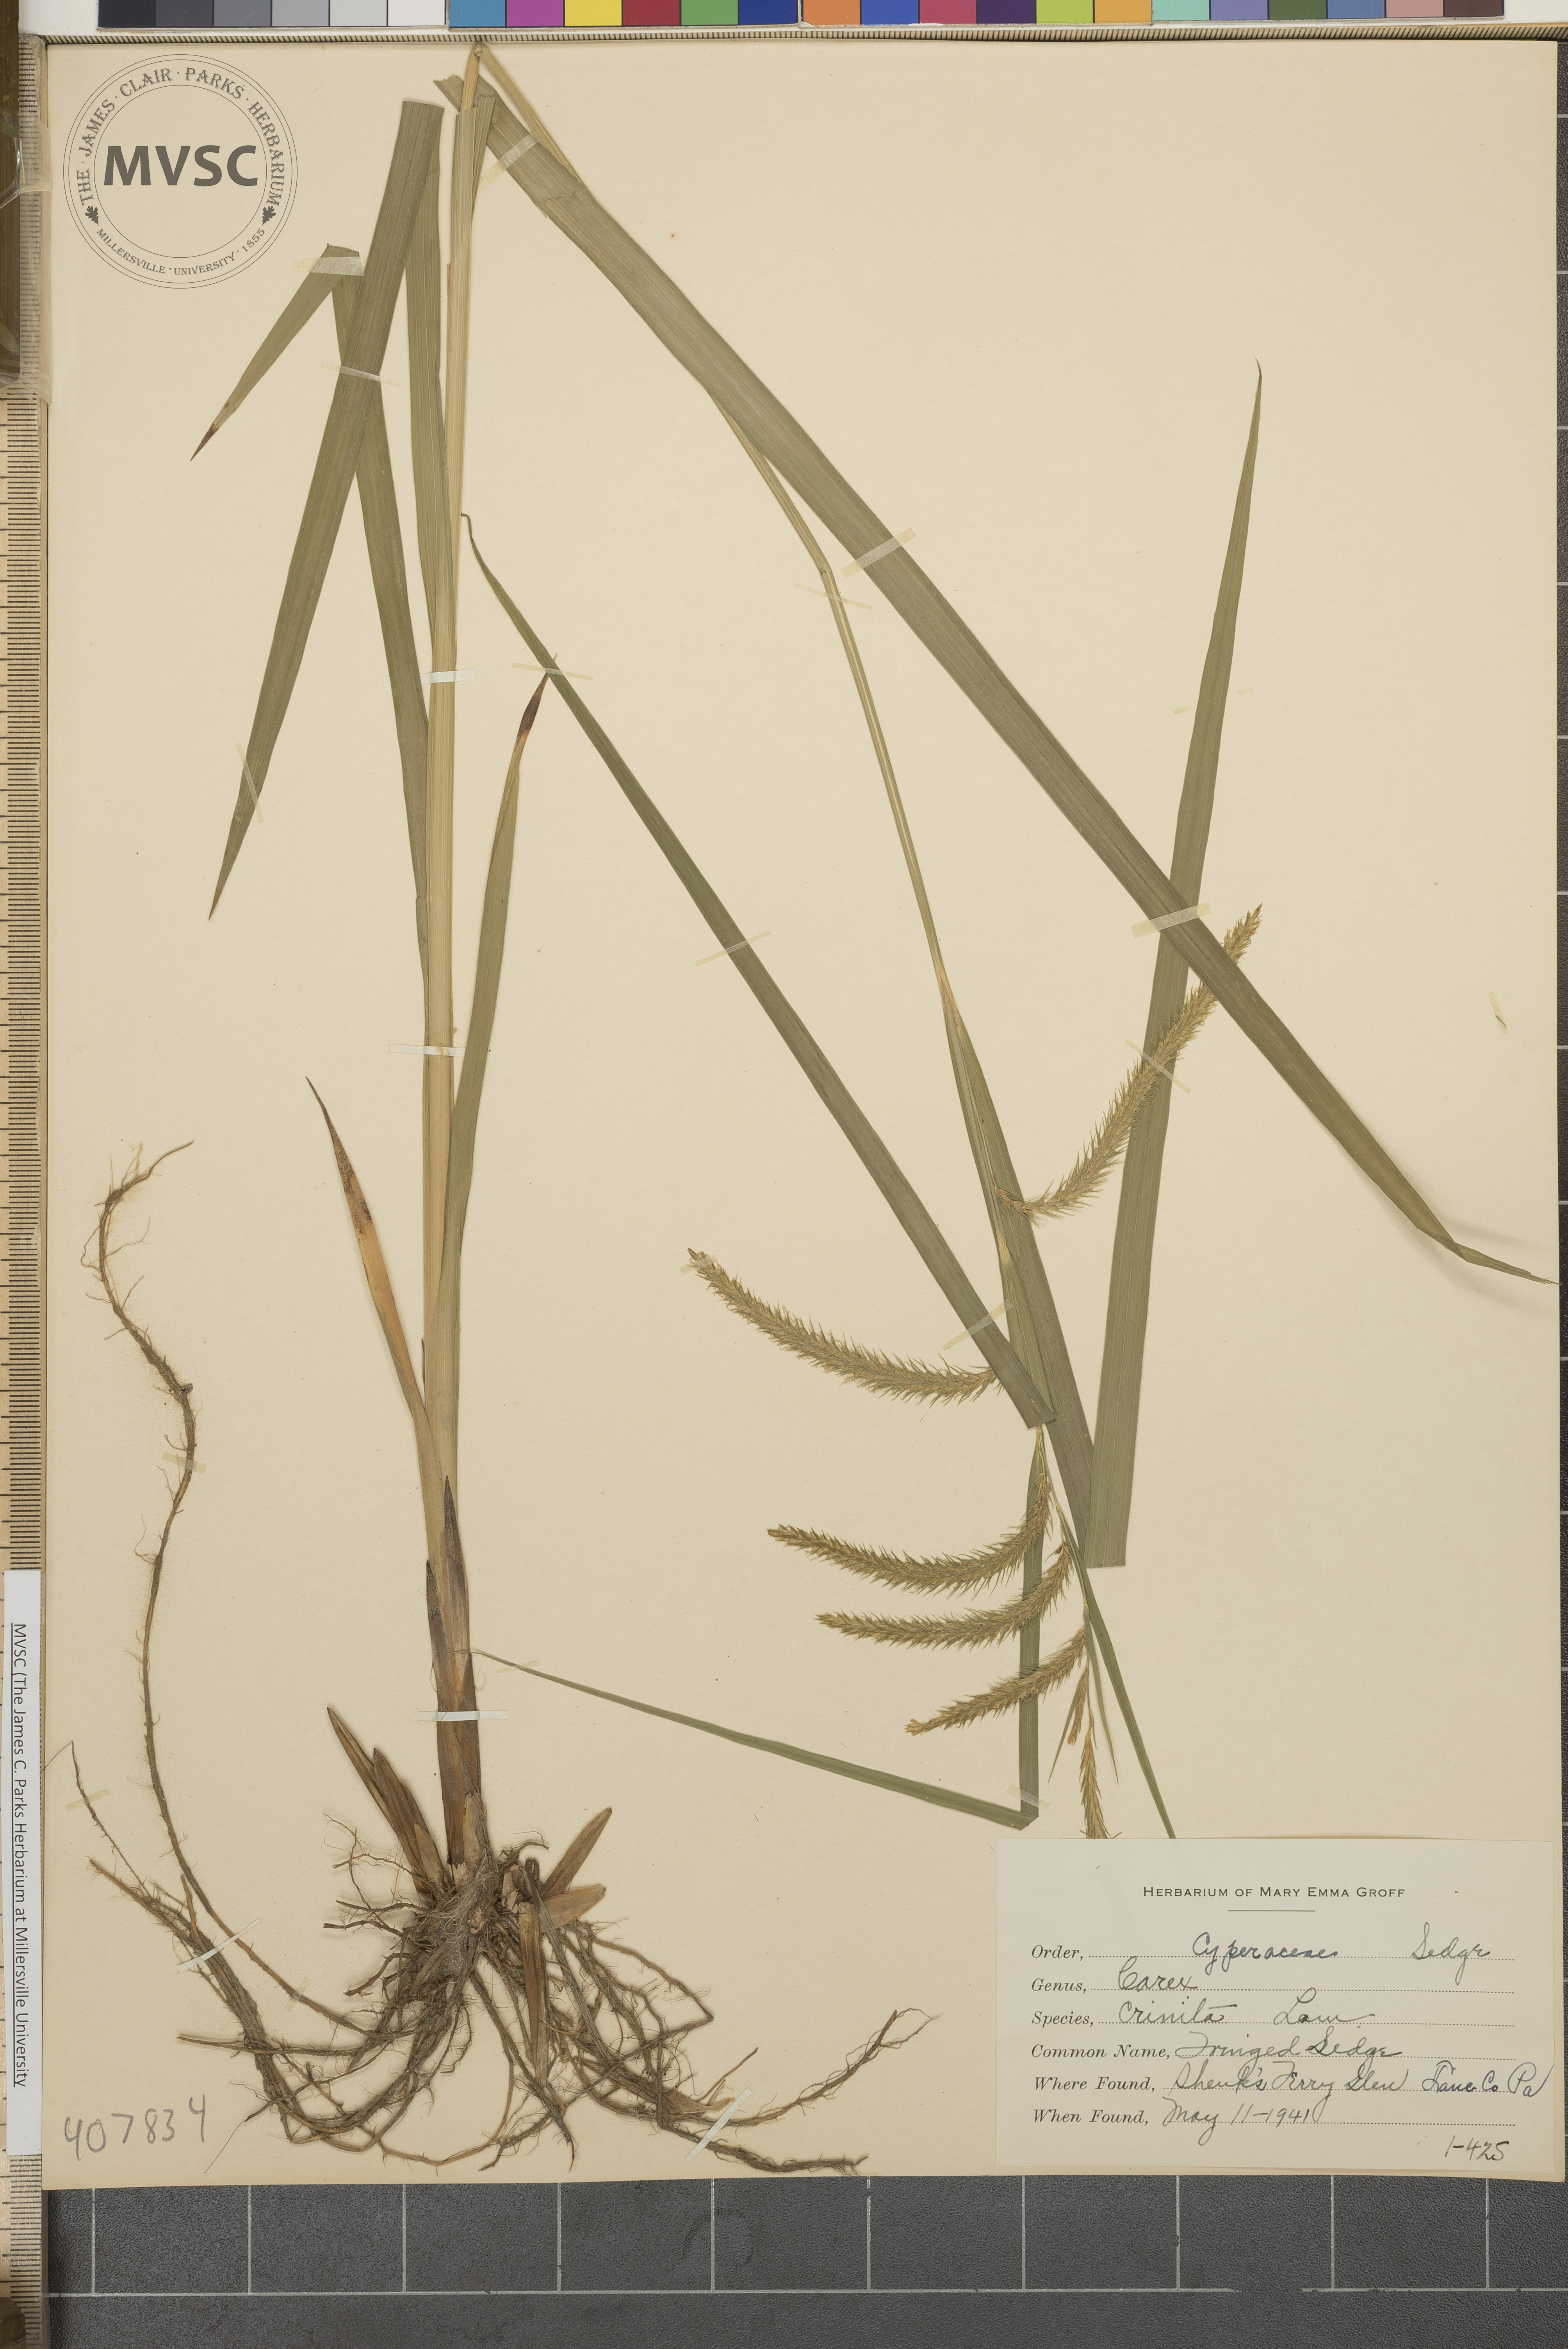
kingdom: Plantae
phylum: Tracheophyta
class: Liliopsida
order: Poales
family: Cyperaceae
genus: Carex
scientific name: Carex crinita
